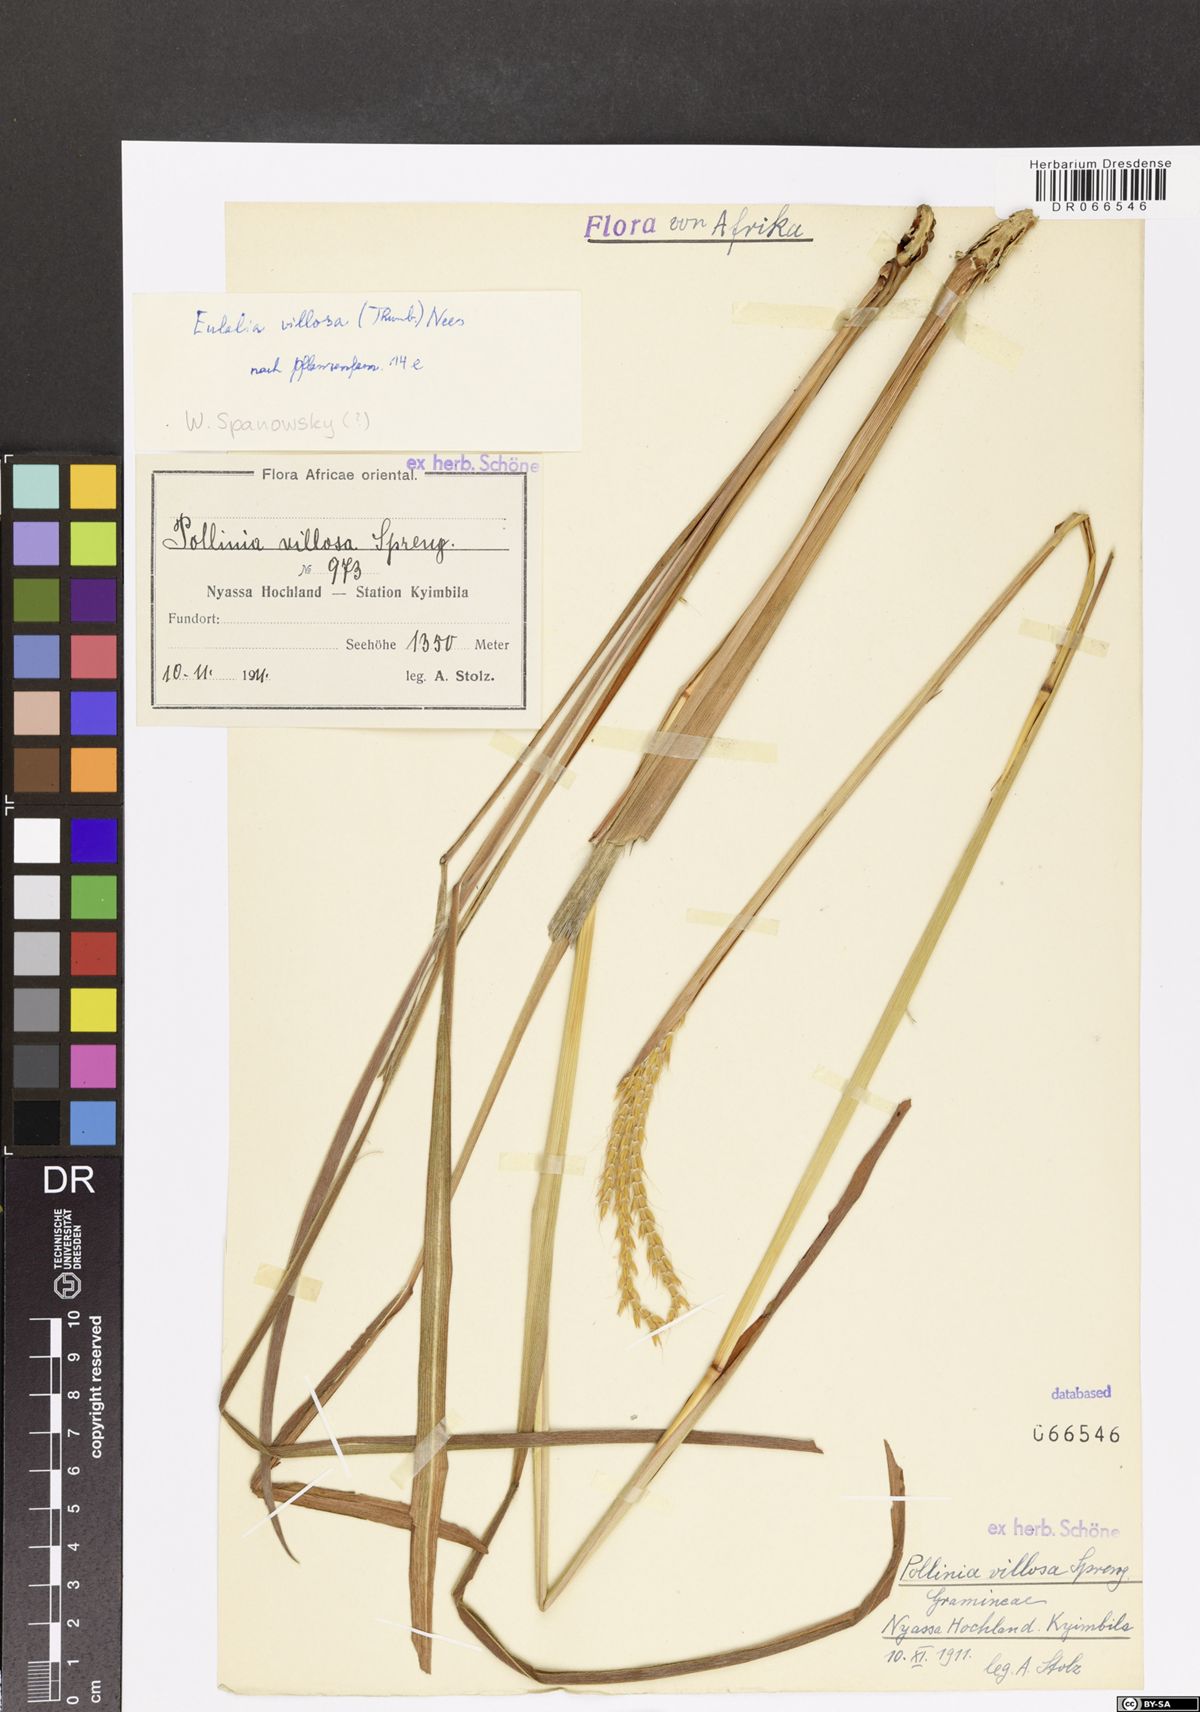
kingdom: Plantae
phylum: Tracheophyta
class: Liliopsida
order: Poales
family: Poaceae
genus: Eulalia
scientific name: Eulalia villosa
